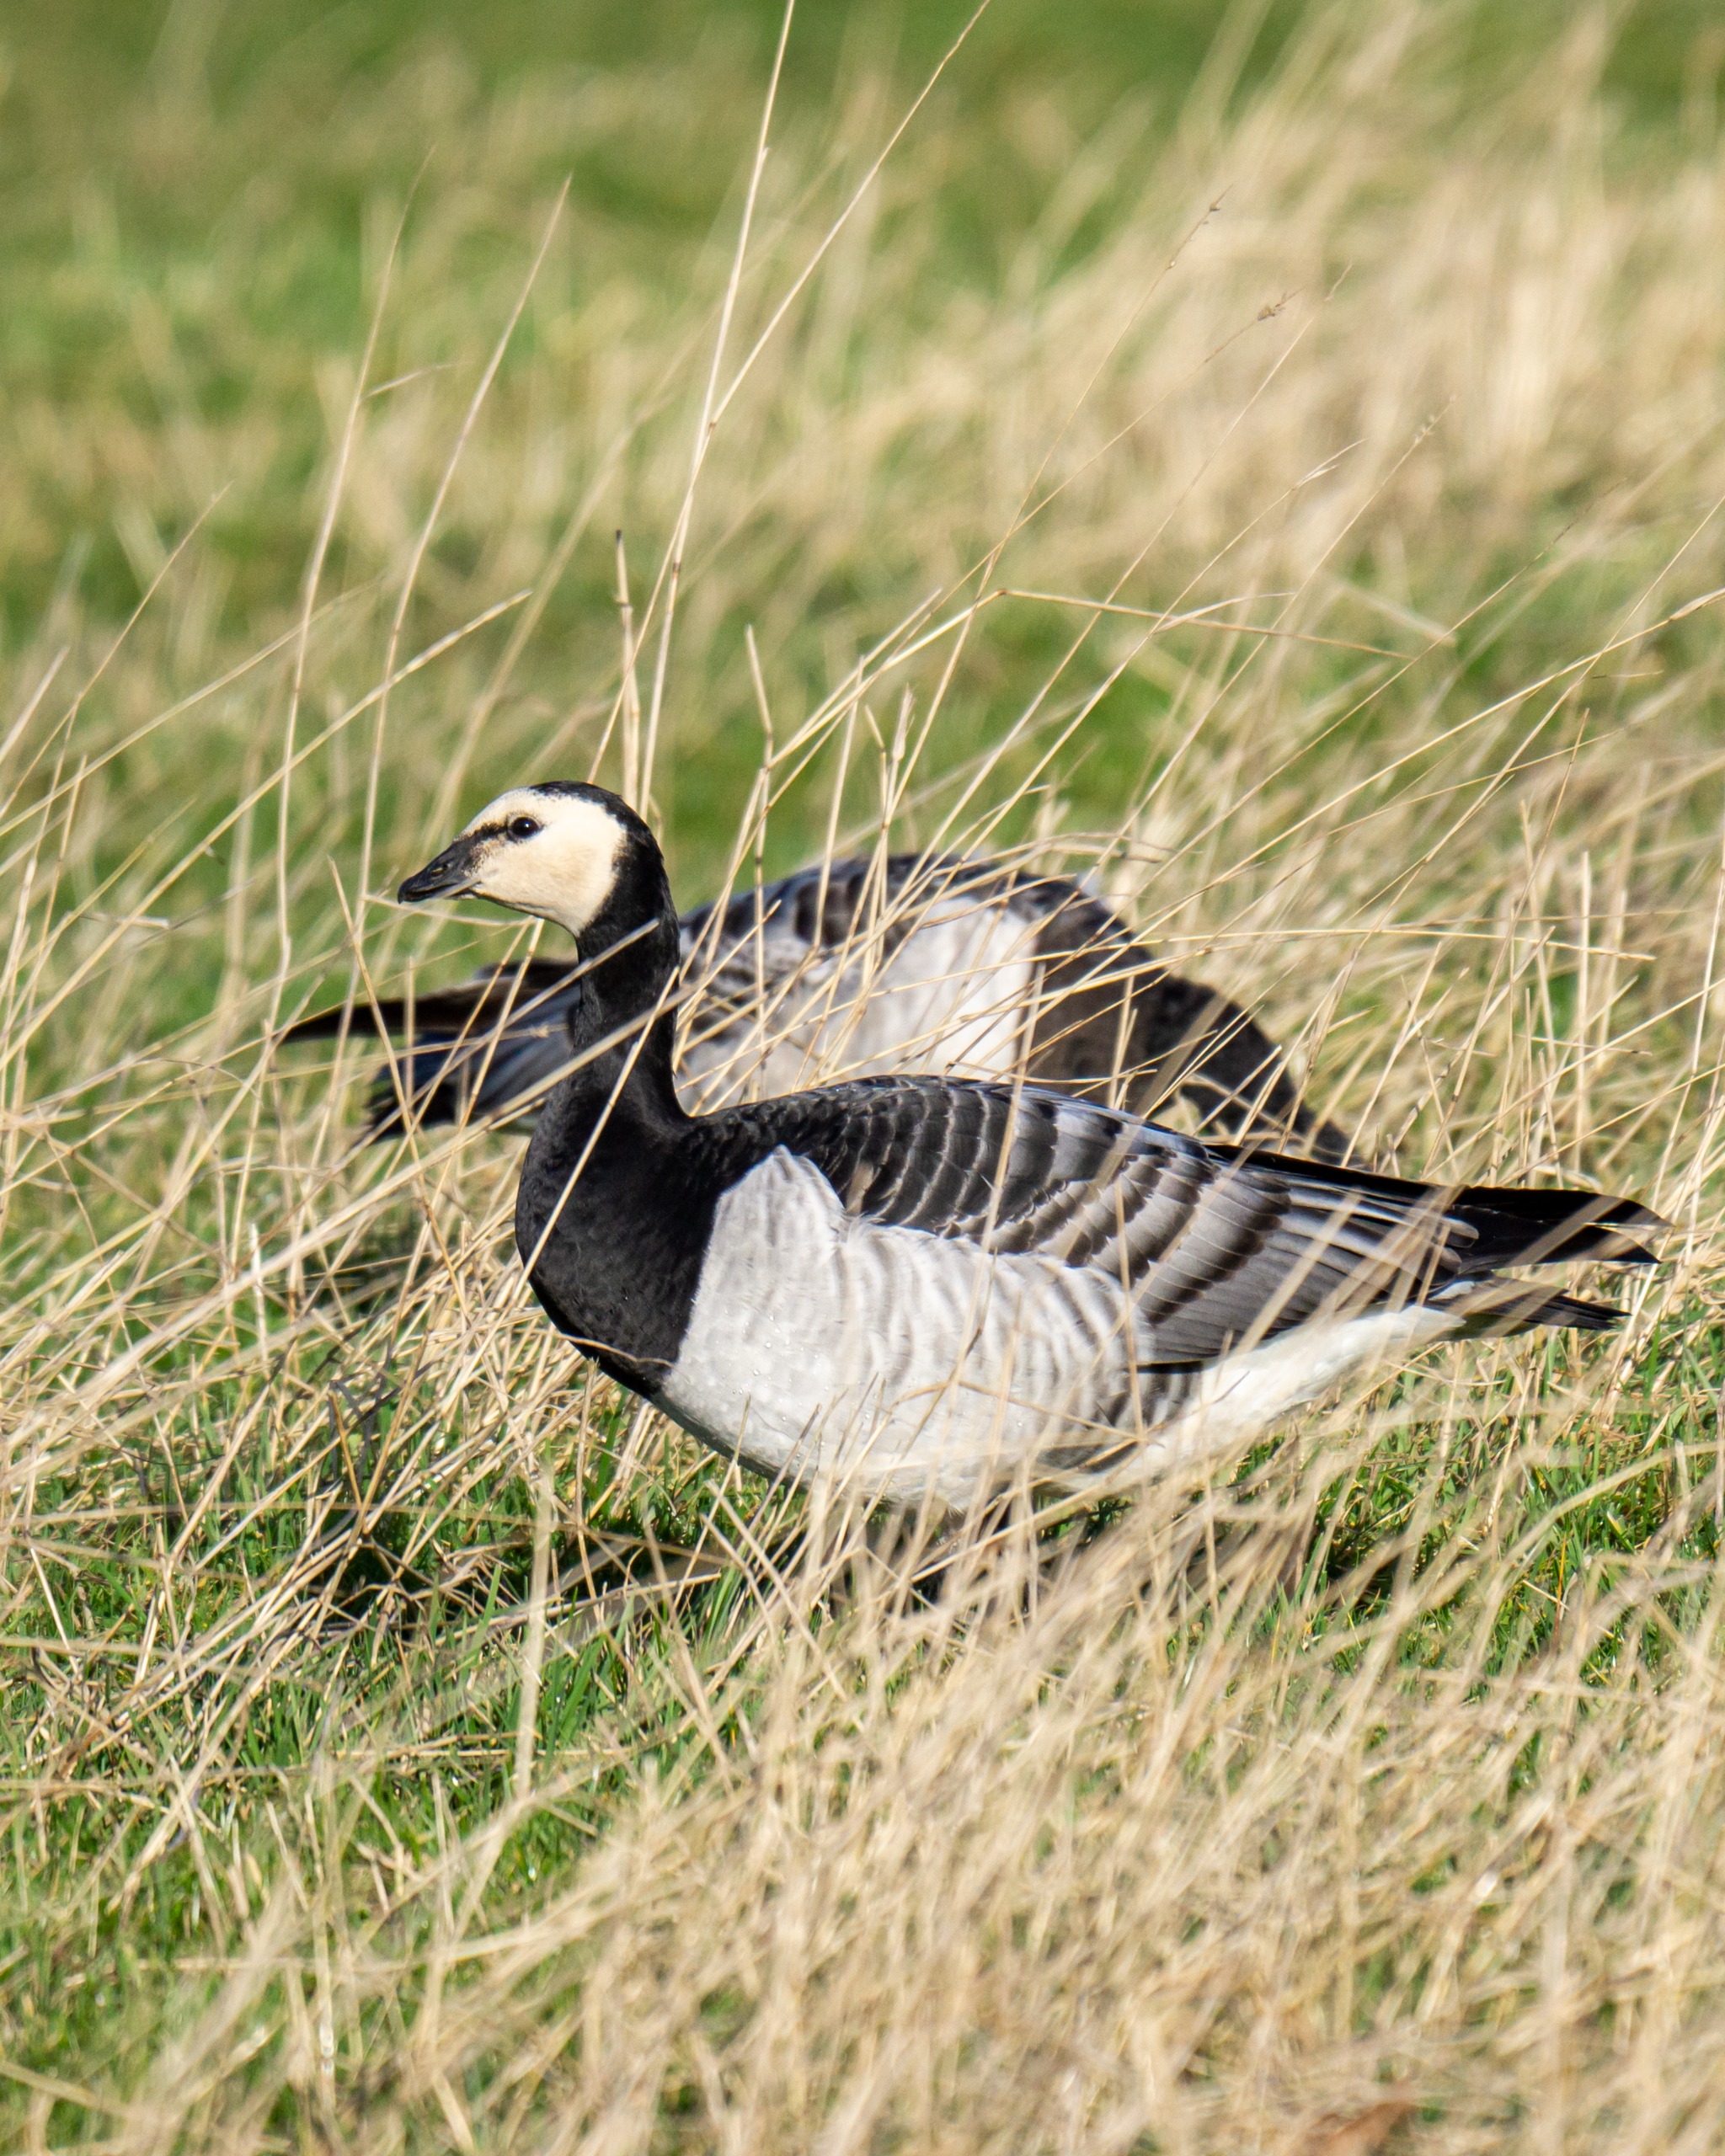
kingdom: Animalia
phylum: Chordata
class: Aves
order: Anseriformes
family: Anatidae
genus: Branta
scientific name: Branta leucopsis
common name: Bramgås
